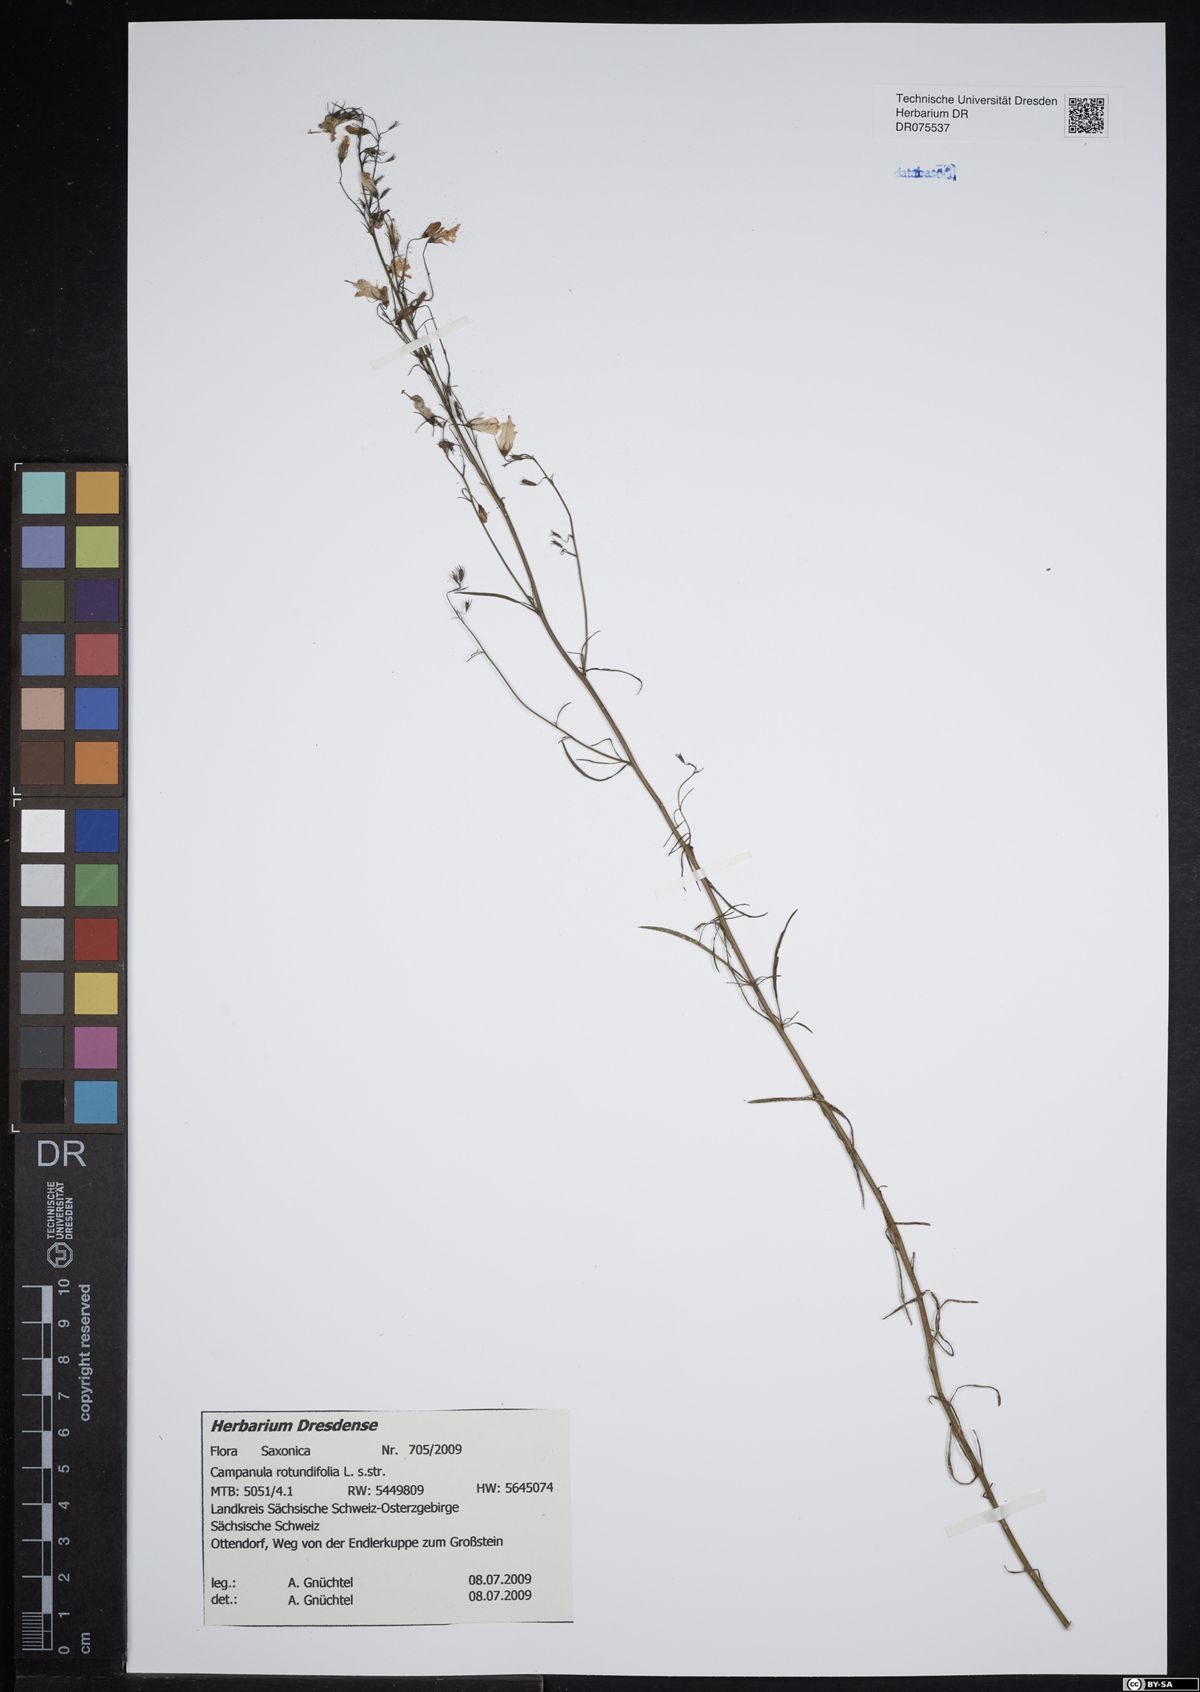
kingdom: Plantae
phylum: Tracheophyta
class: Magnoliopsida
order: Asterales
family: Campanulaceae
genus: Campanula
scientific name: Campanula rotundifolia
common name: Harebell
